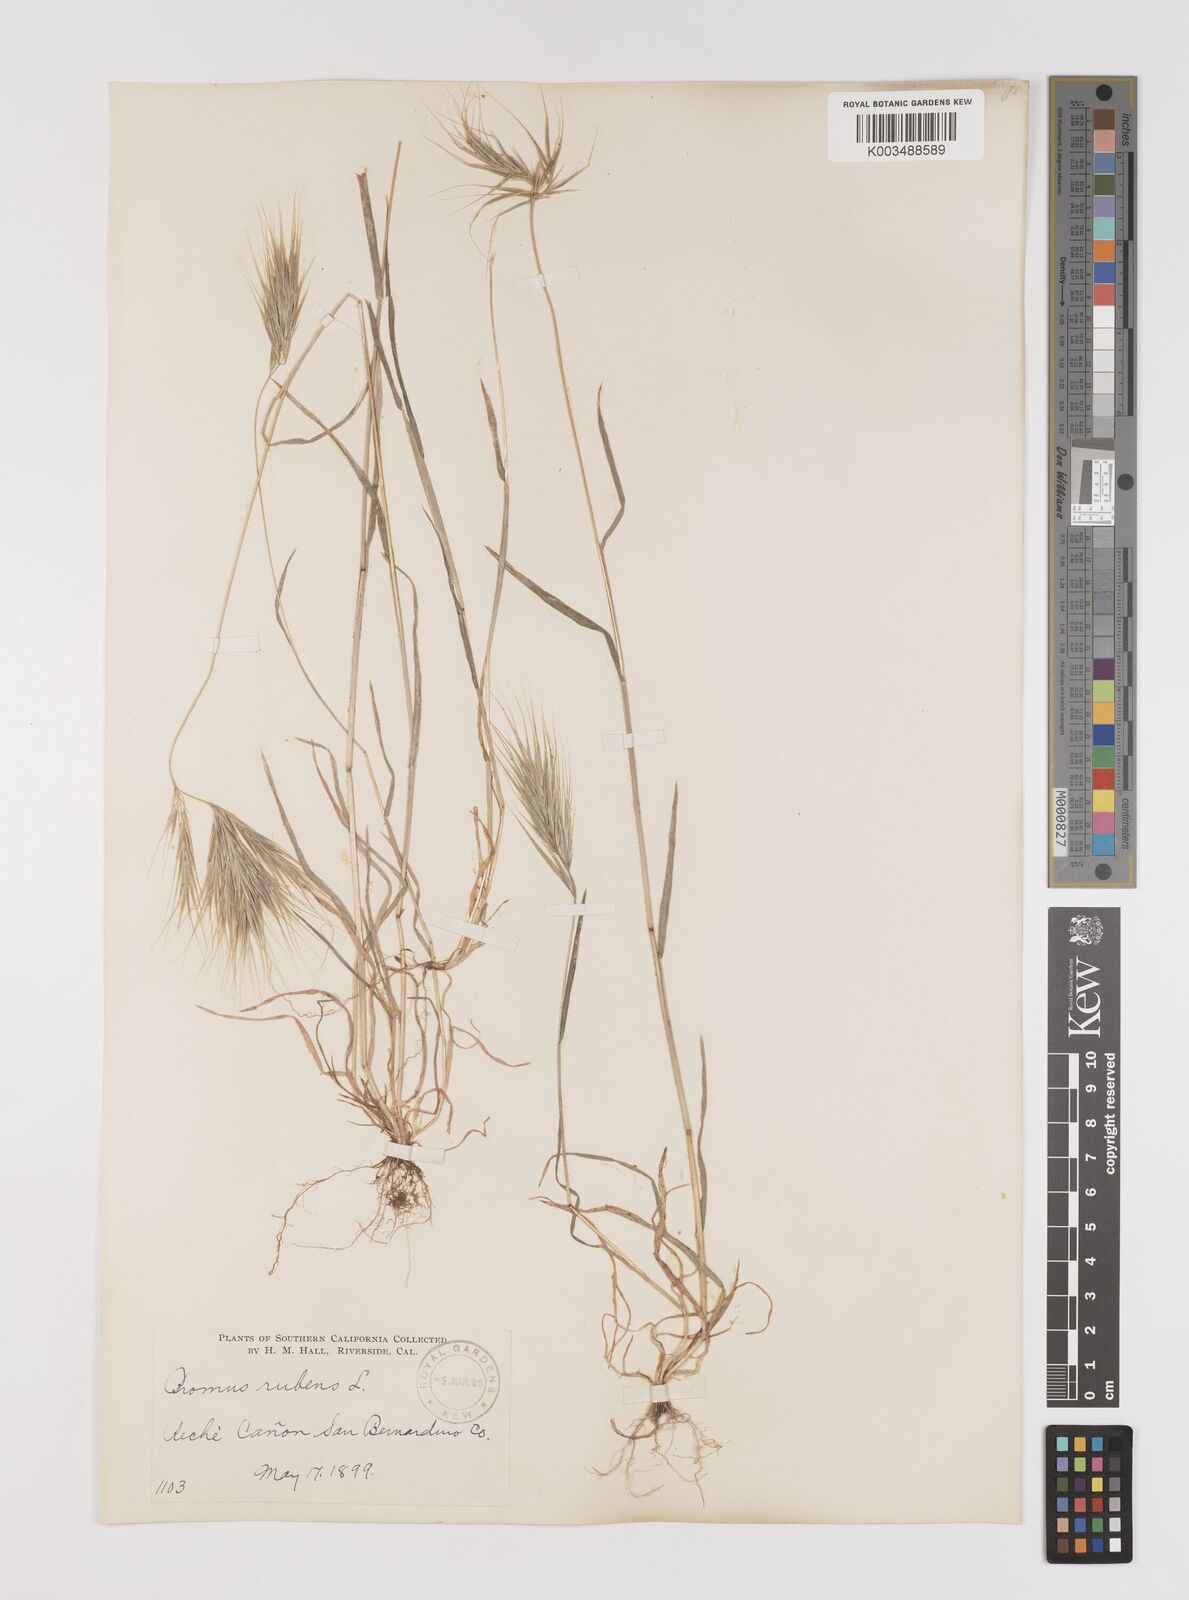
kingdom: Plantae
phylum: Tracheophyta
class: Liliopsida
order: Poales
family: Poaceae
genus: Bromus
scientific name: Bromus rubens
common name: Red brome
